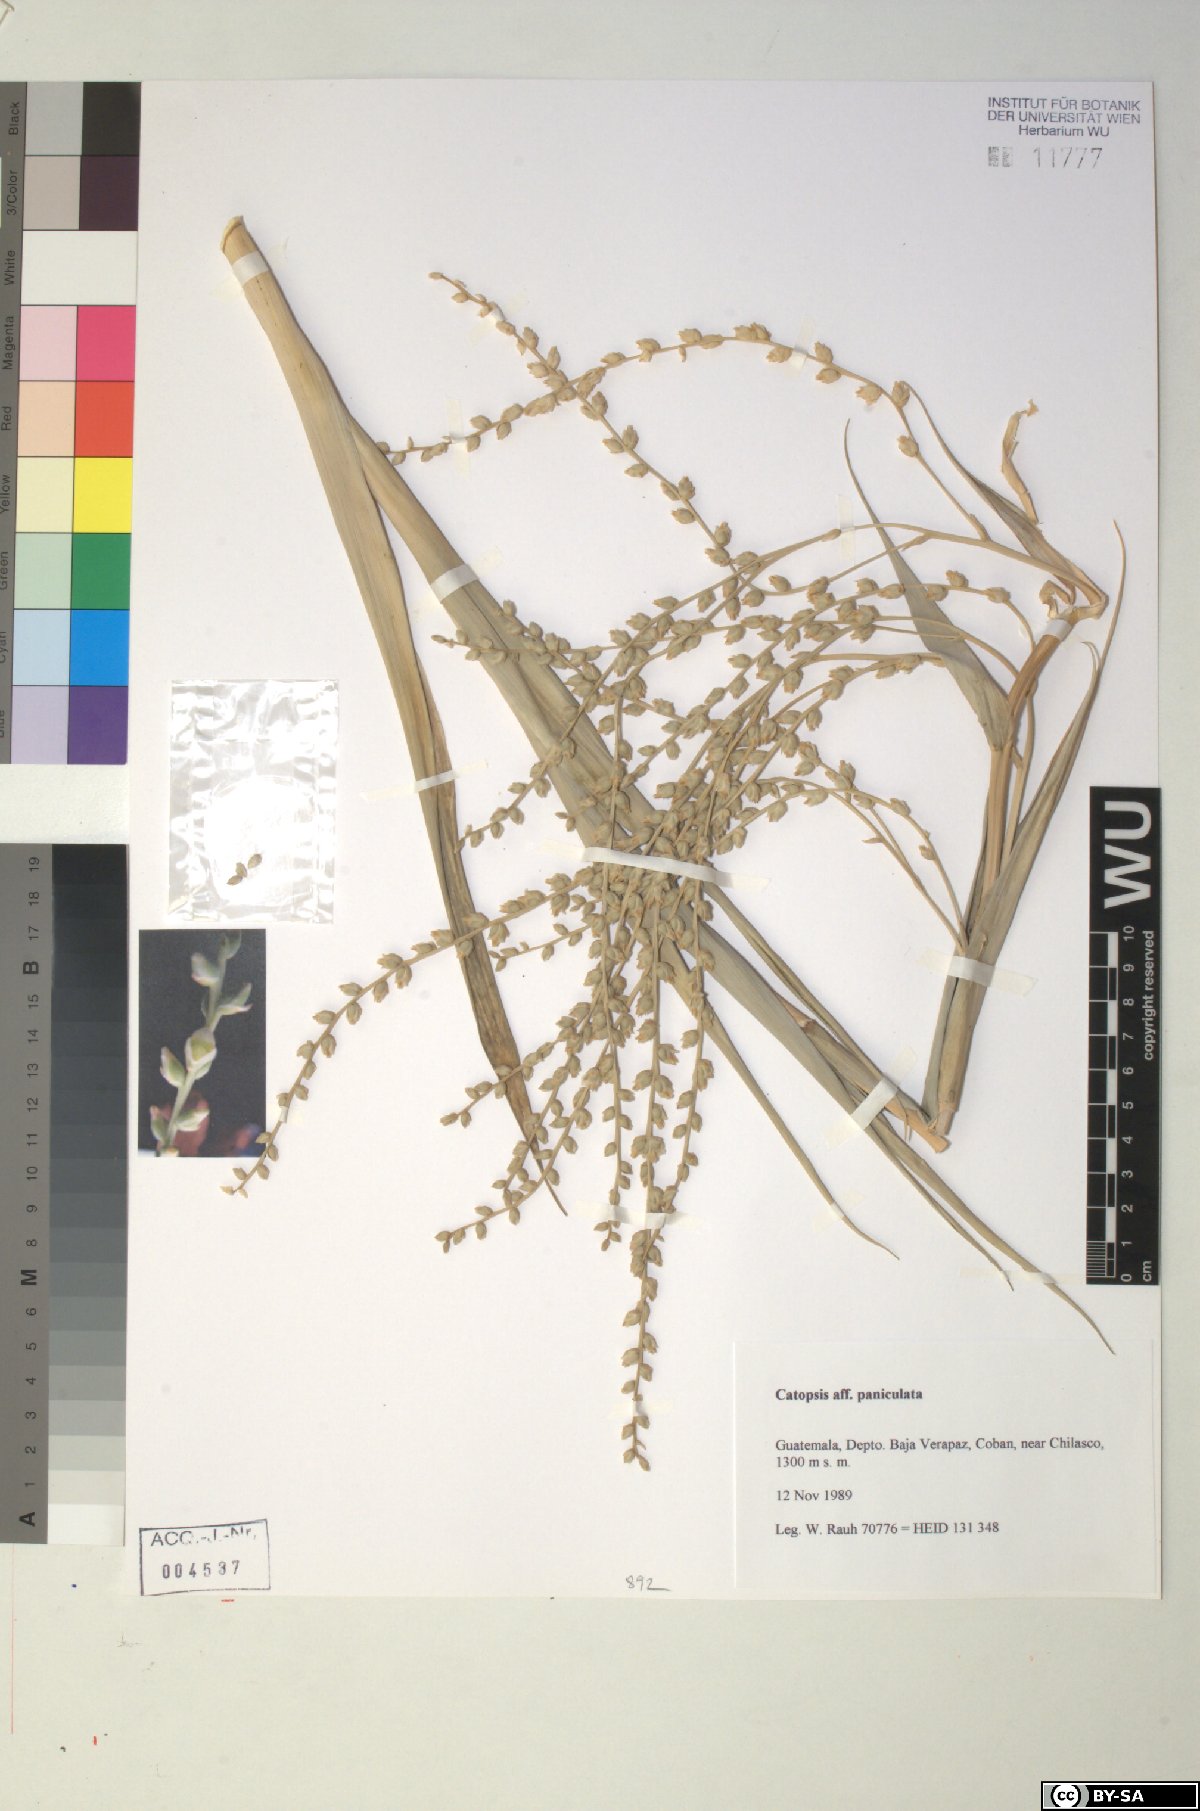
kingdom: Plantae
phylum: Tracheophyta
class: Liliopsida
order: Poales
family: Bromeliaceae
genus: Catopsis
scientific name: Catopsis paniculata
